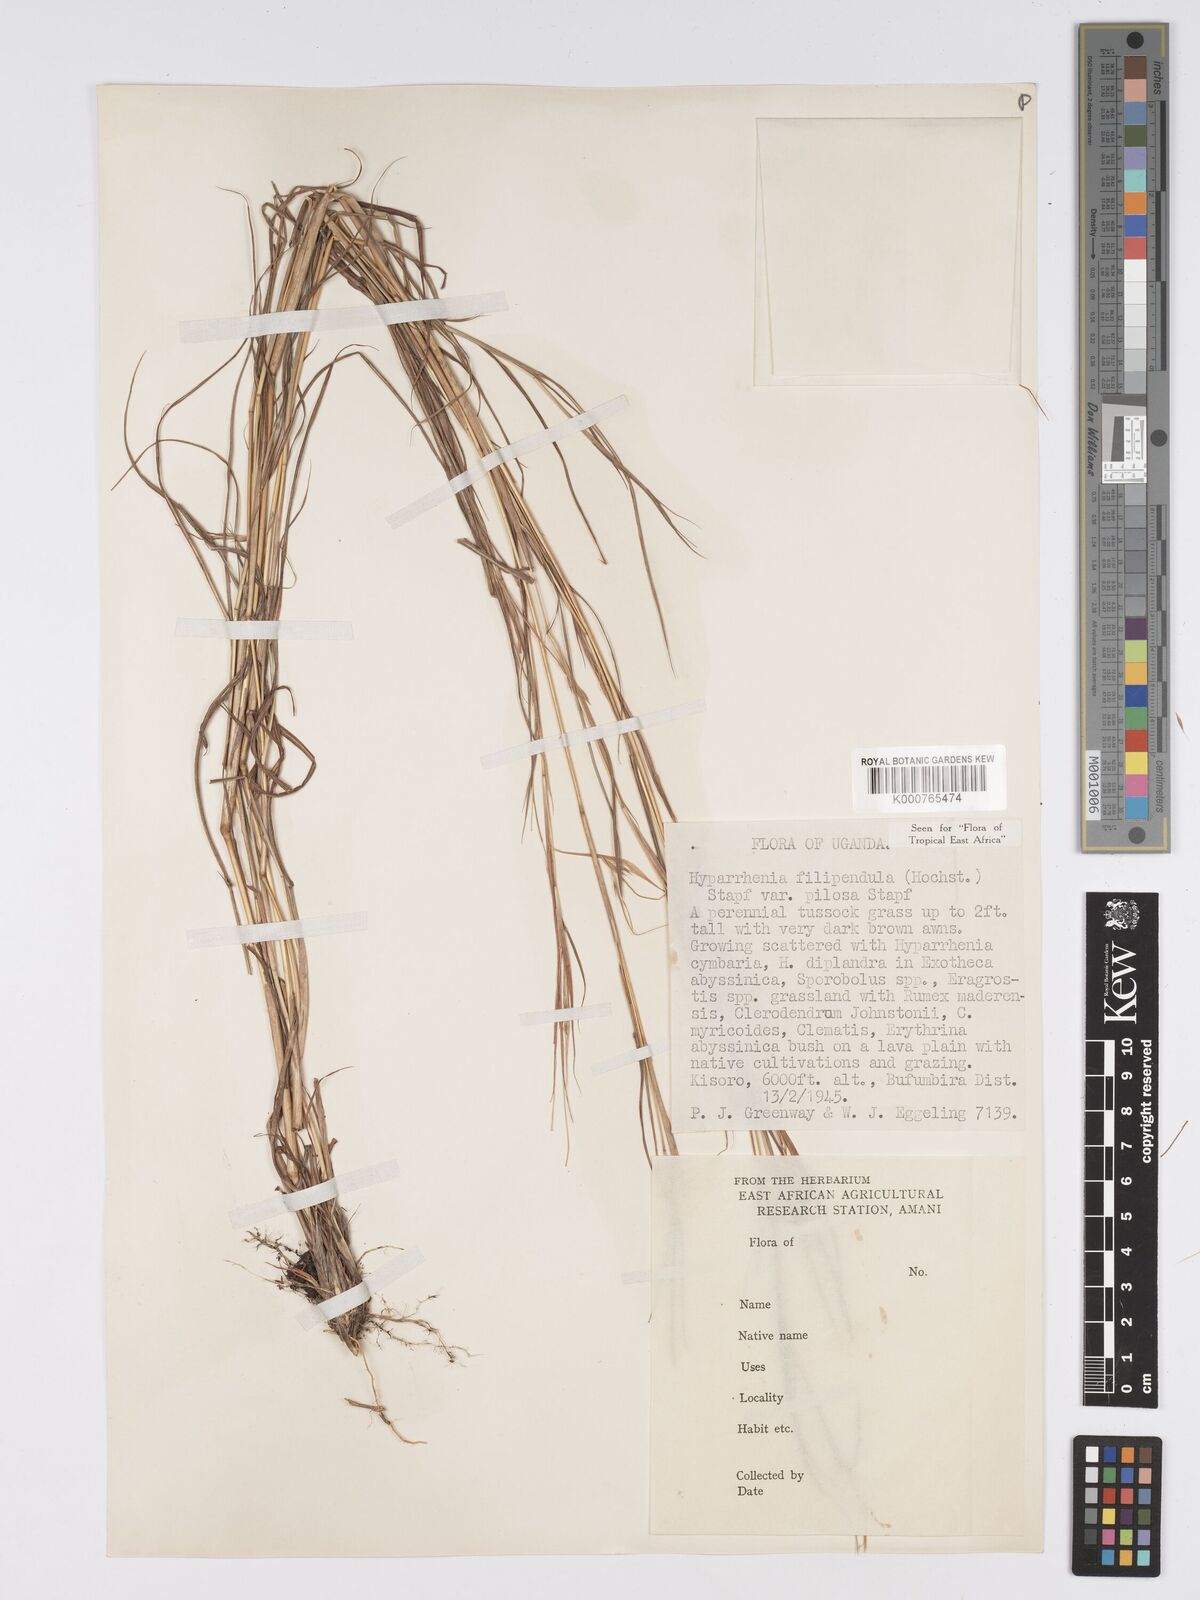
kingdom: Plantae
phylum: Tracheophyta
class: Liliopsida
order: Poales
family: Poaceae
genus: Hyparrhenia
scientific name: Hyparrhenia filipendula
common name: Tambookie grass
